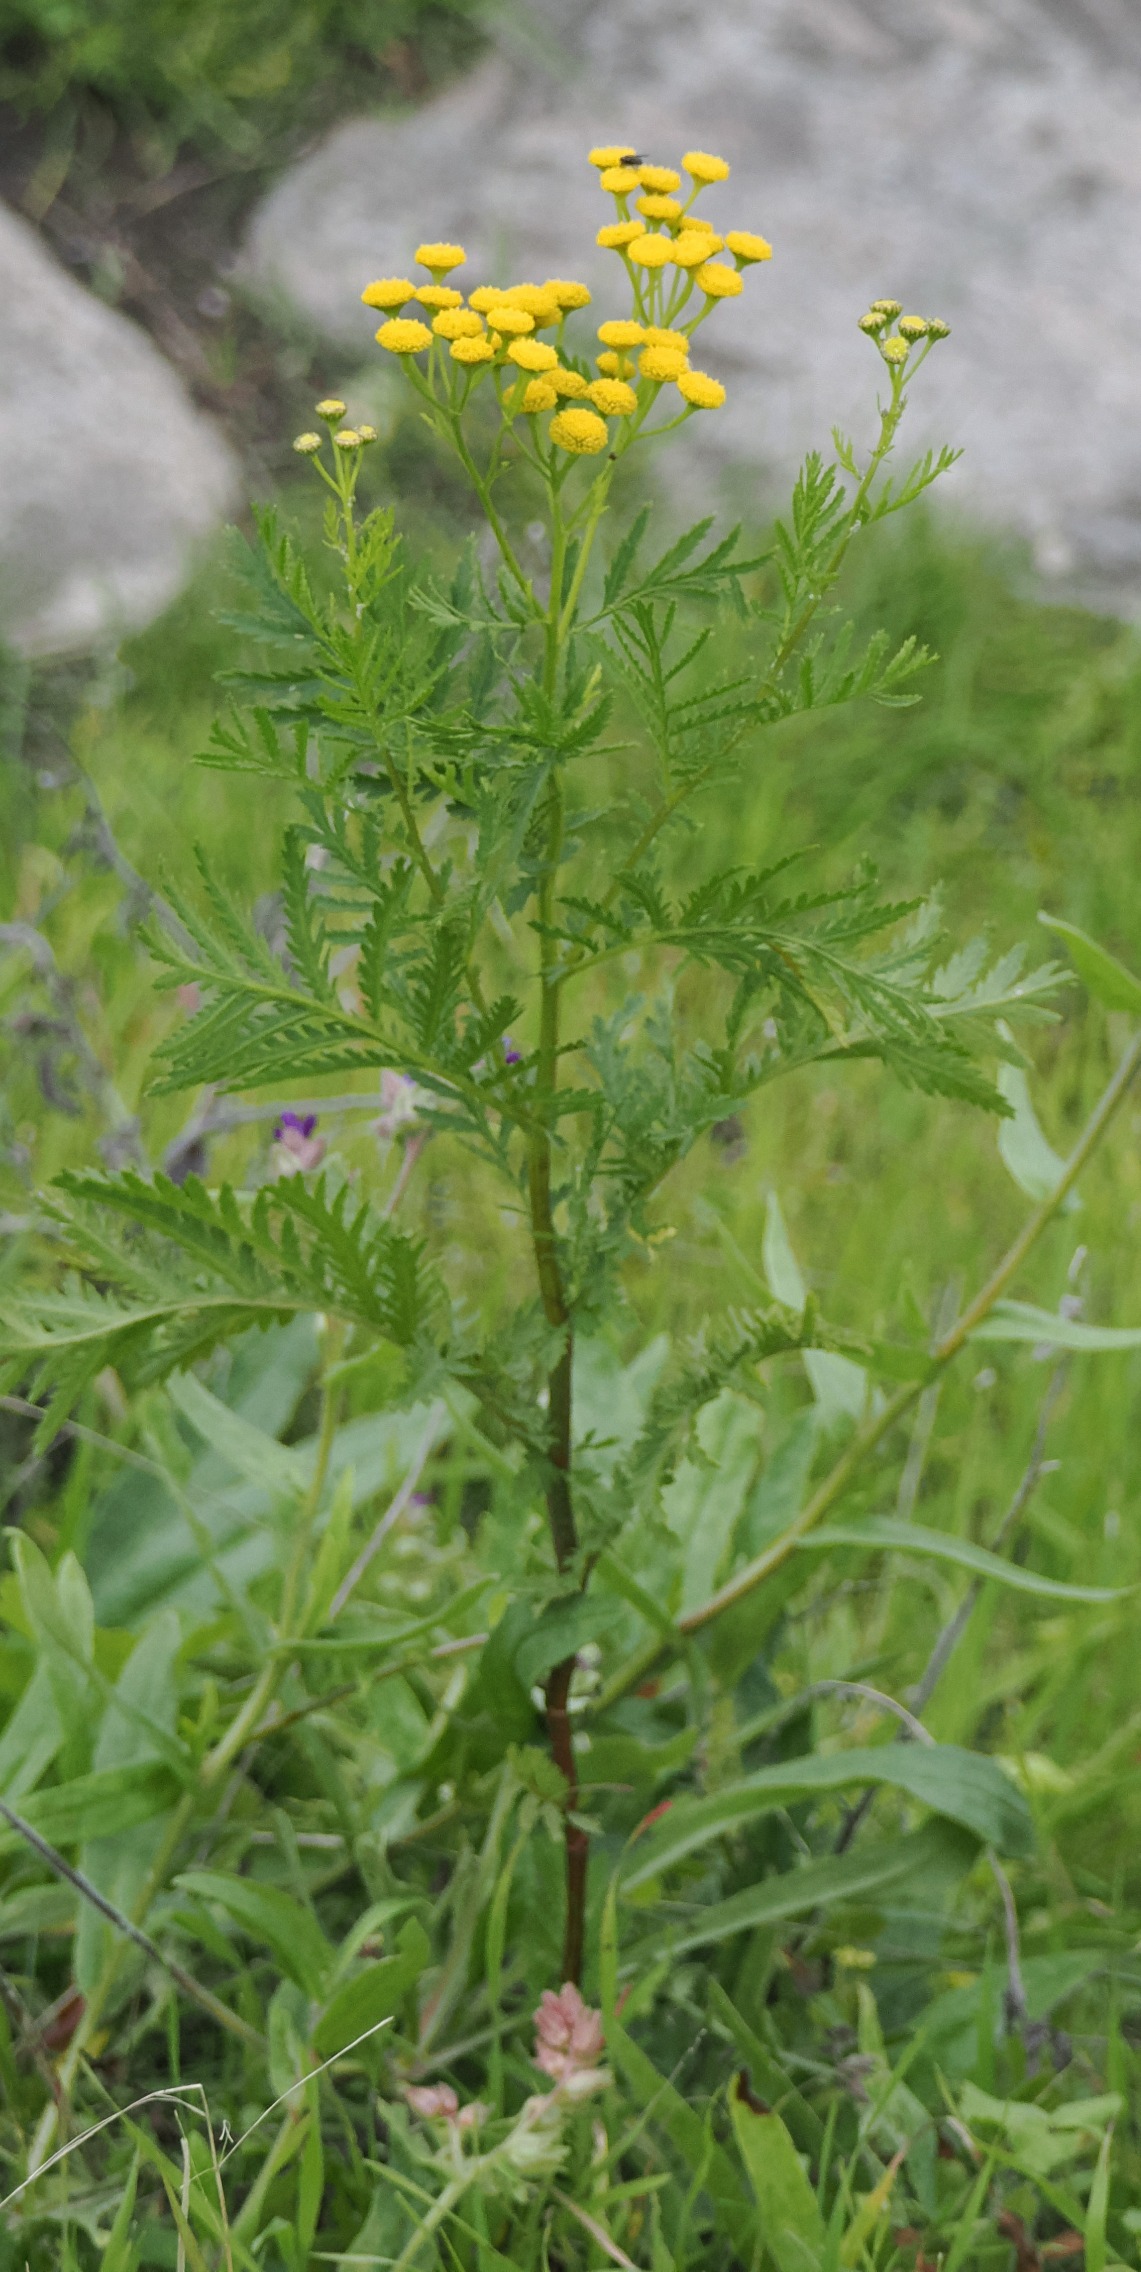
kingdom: Plantae
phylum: Tracheophyta
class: Magnoliopsida
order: Asterales
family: Asteraceae
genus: Tanacetum
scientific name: Tanacetum vulgare
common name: Rejnfan
